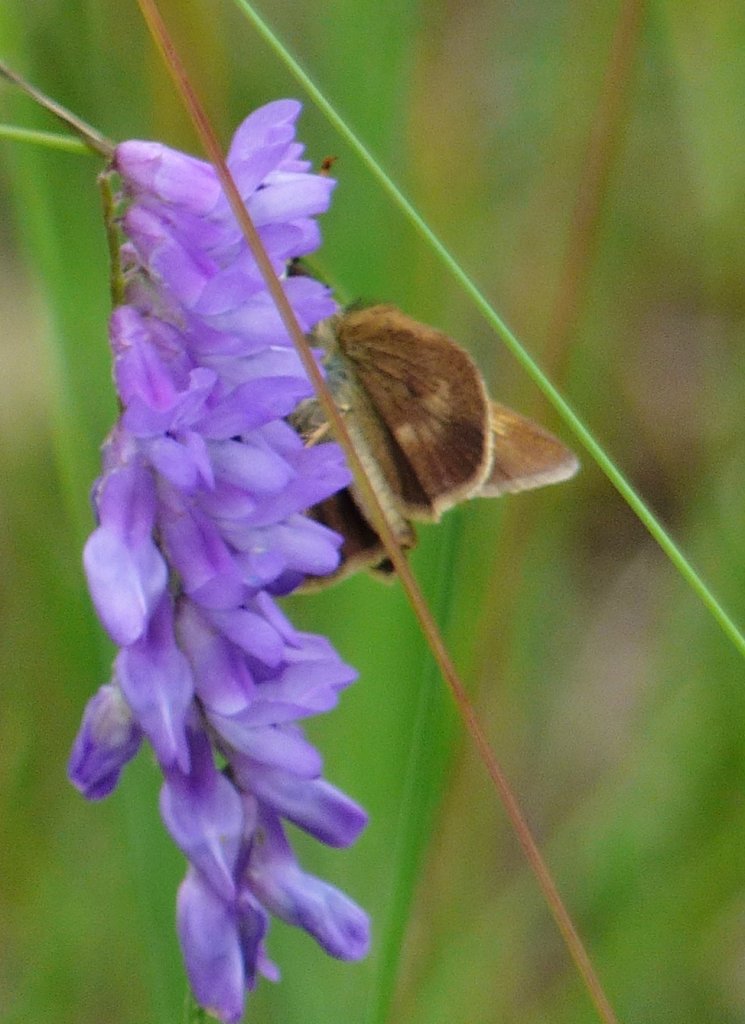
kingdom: Animalia
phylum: Arthropoda
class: Insecta
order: Lepidoptera
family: Hesperiidae
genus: Polites
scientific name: Polites egeremet
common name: Northern Broken-Dash
